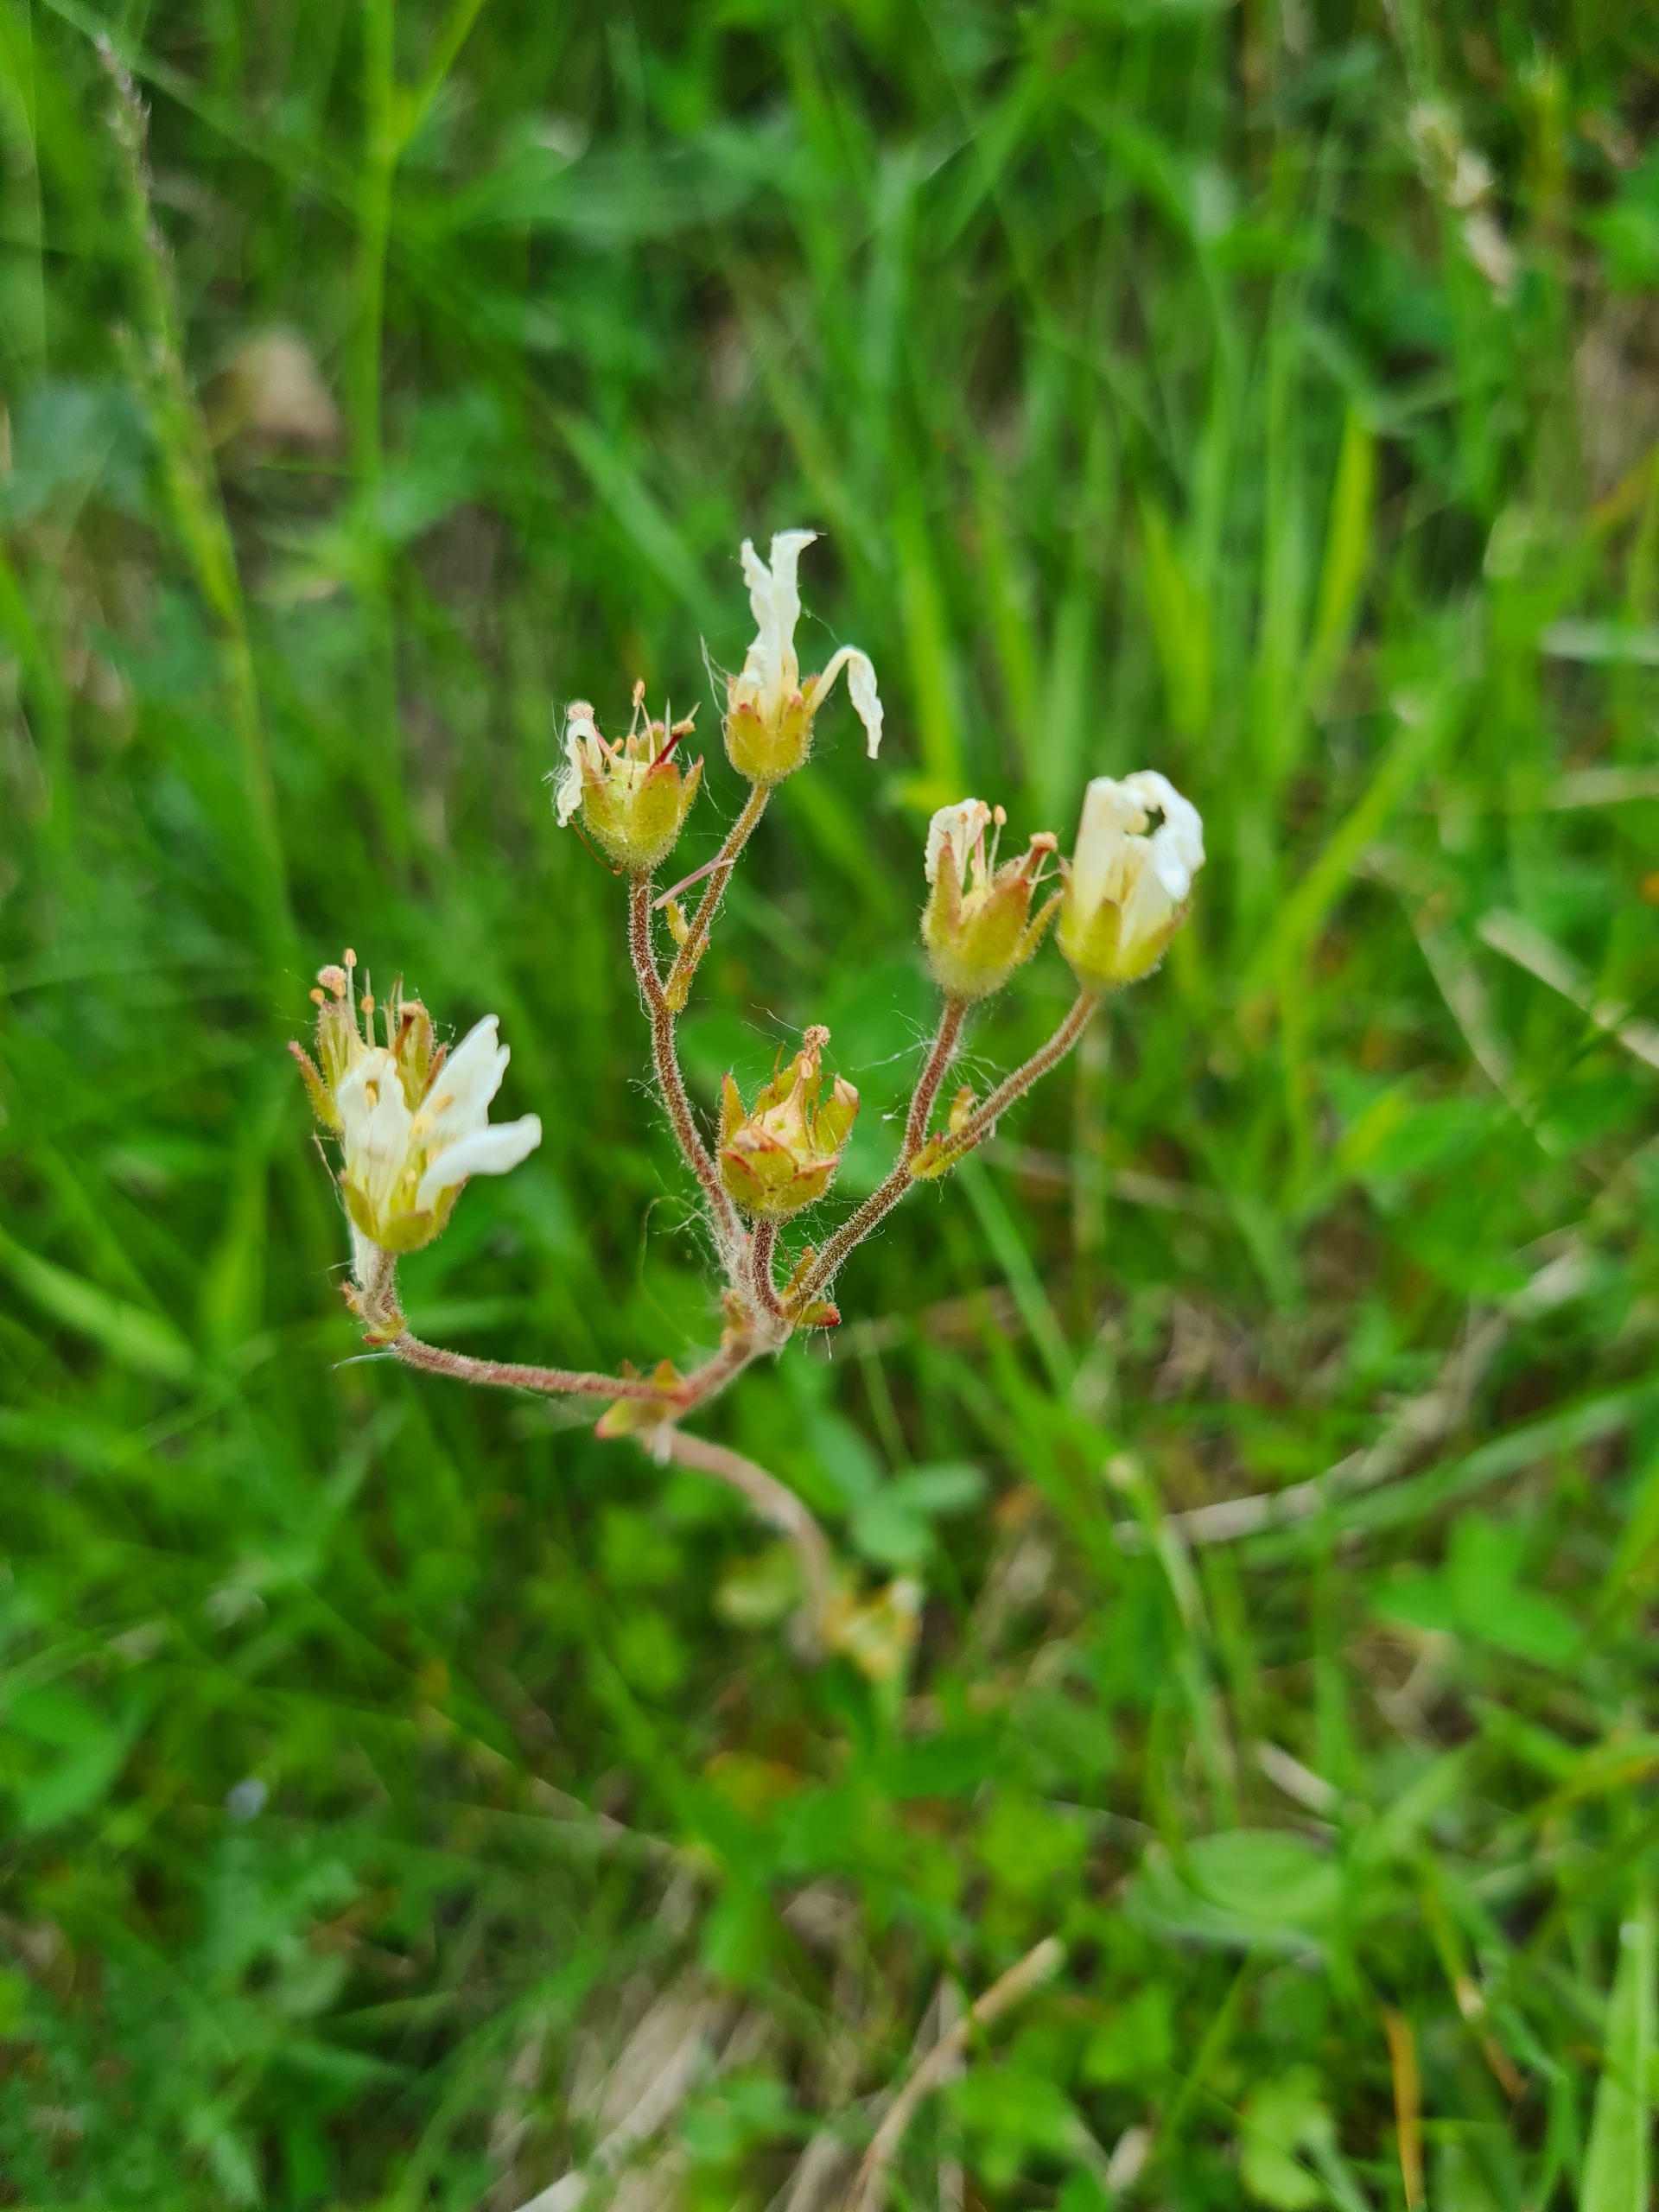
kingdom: Plantae
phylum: Tracheophyta
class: Magnoliopsida
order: Saxifragales
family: Saxifragaceae
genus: Saxifraga
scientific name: Saxifraga granulata
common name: Kornet stenbræk
